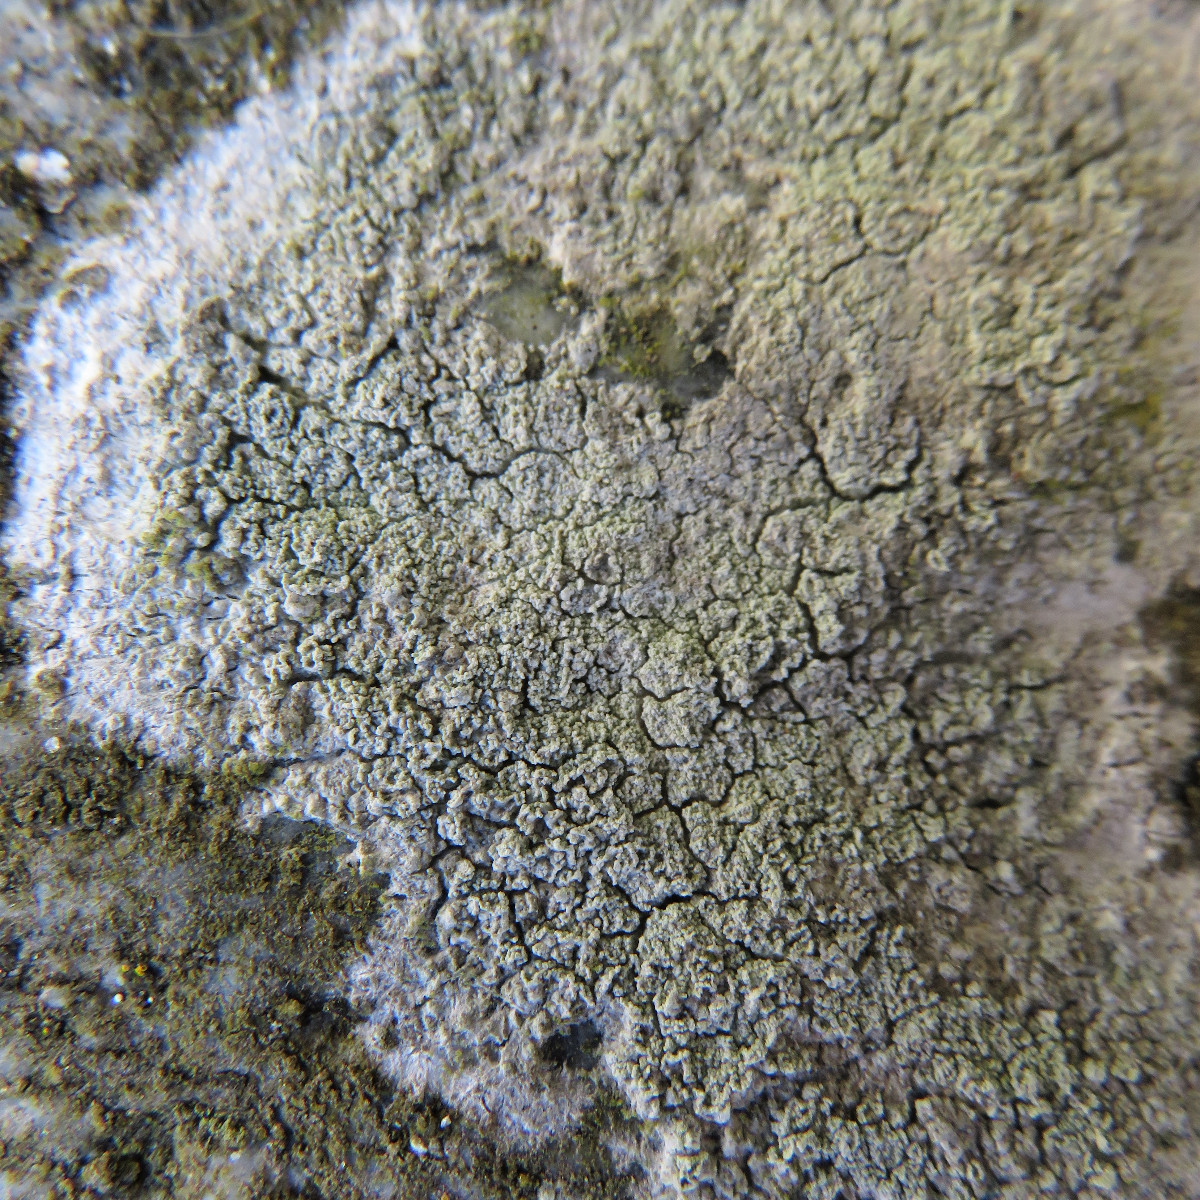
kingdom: Fungi
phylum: Ascomycota
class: Lecanoromycetes
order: Lecanorales
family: Lecanoraceae
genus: Lecanora
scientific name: Lecanora expallens
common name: bleggul kantskivelav
